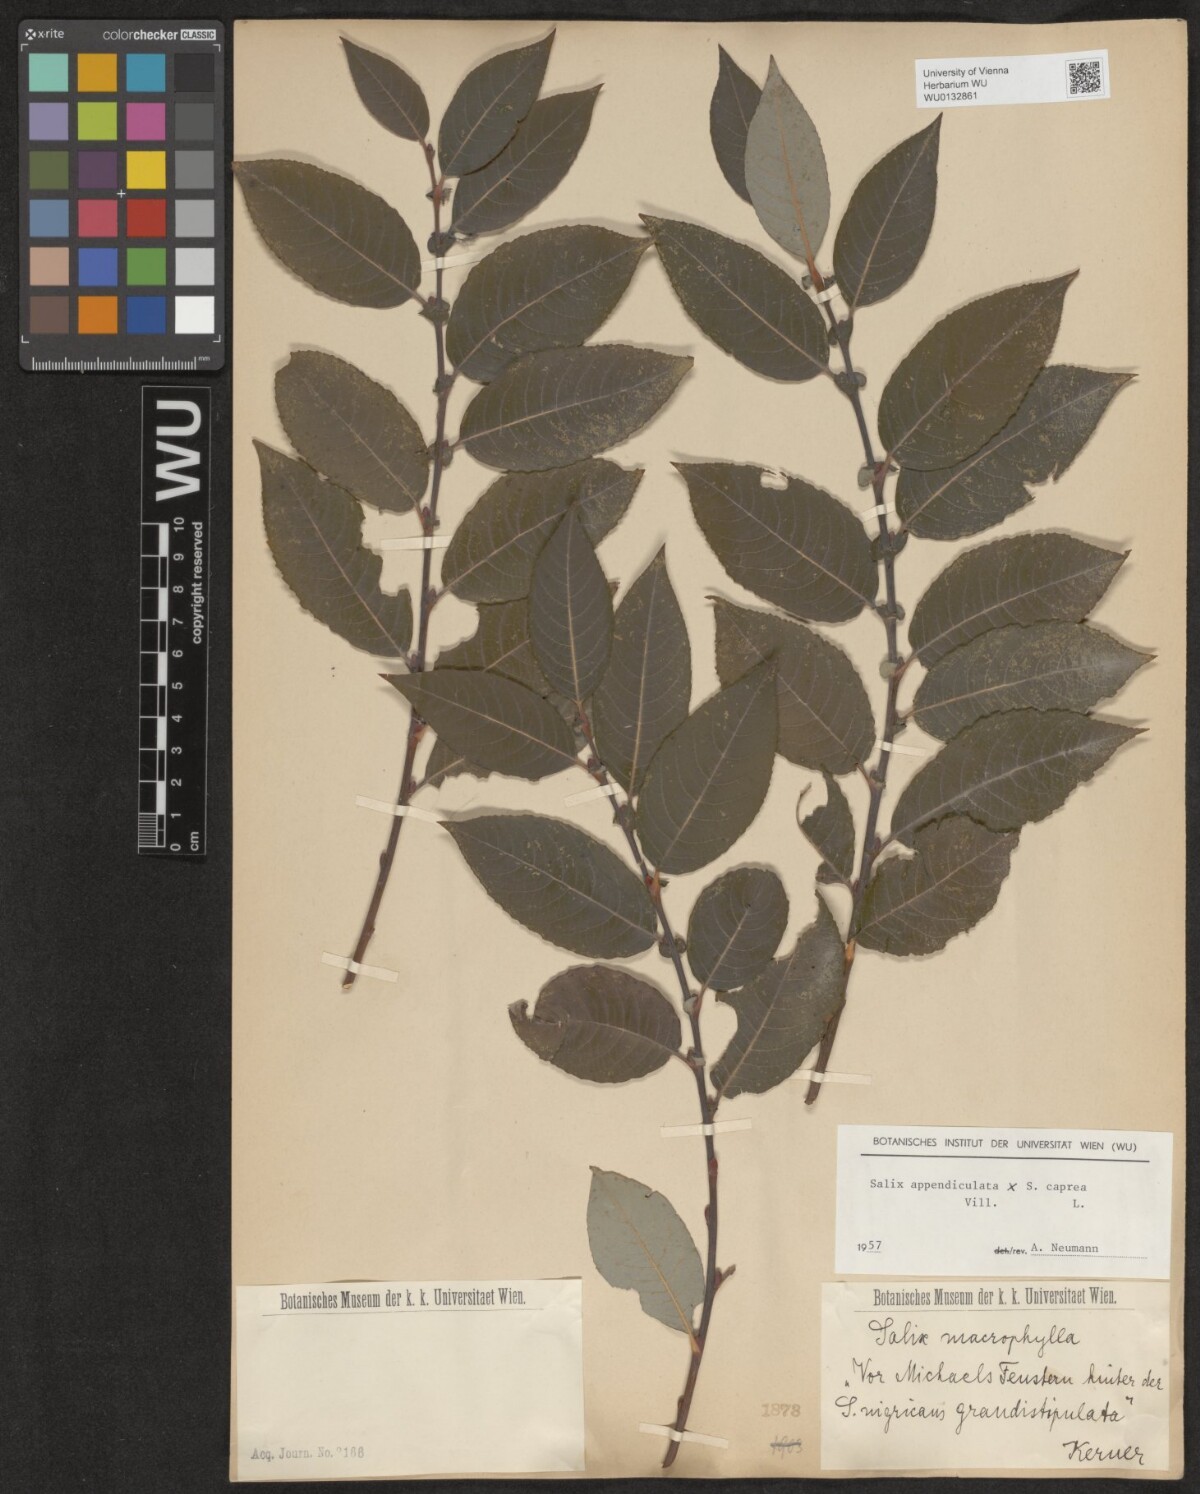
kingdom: Plantae
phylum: Tracheophyta
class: Magnoliopsida
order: Malpighiales
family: Salicaceae
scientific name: Salicaceae
